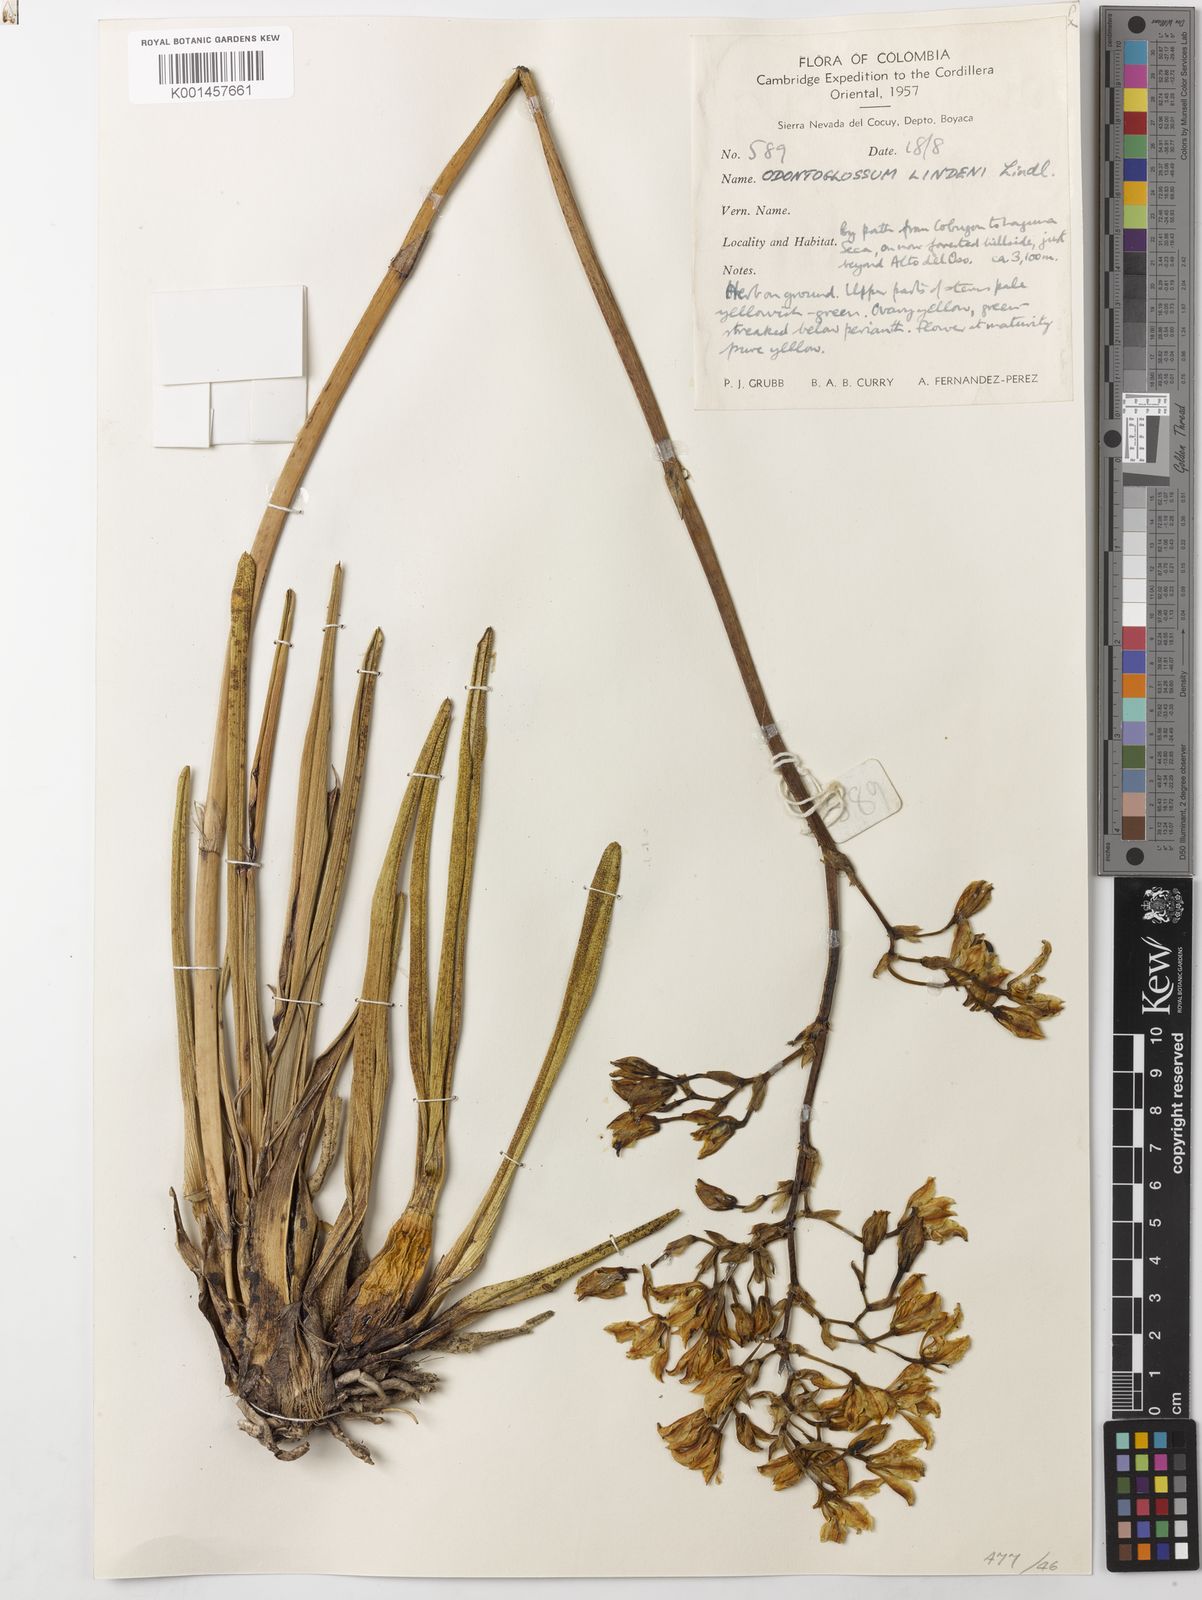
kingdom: Plantae
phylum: Tracheophyta
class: Liliopsida
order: Asparagales
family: Orchidaceae
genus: Cyrtochilum
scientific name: Cyrtochilum
